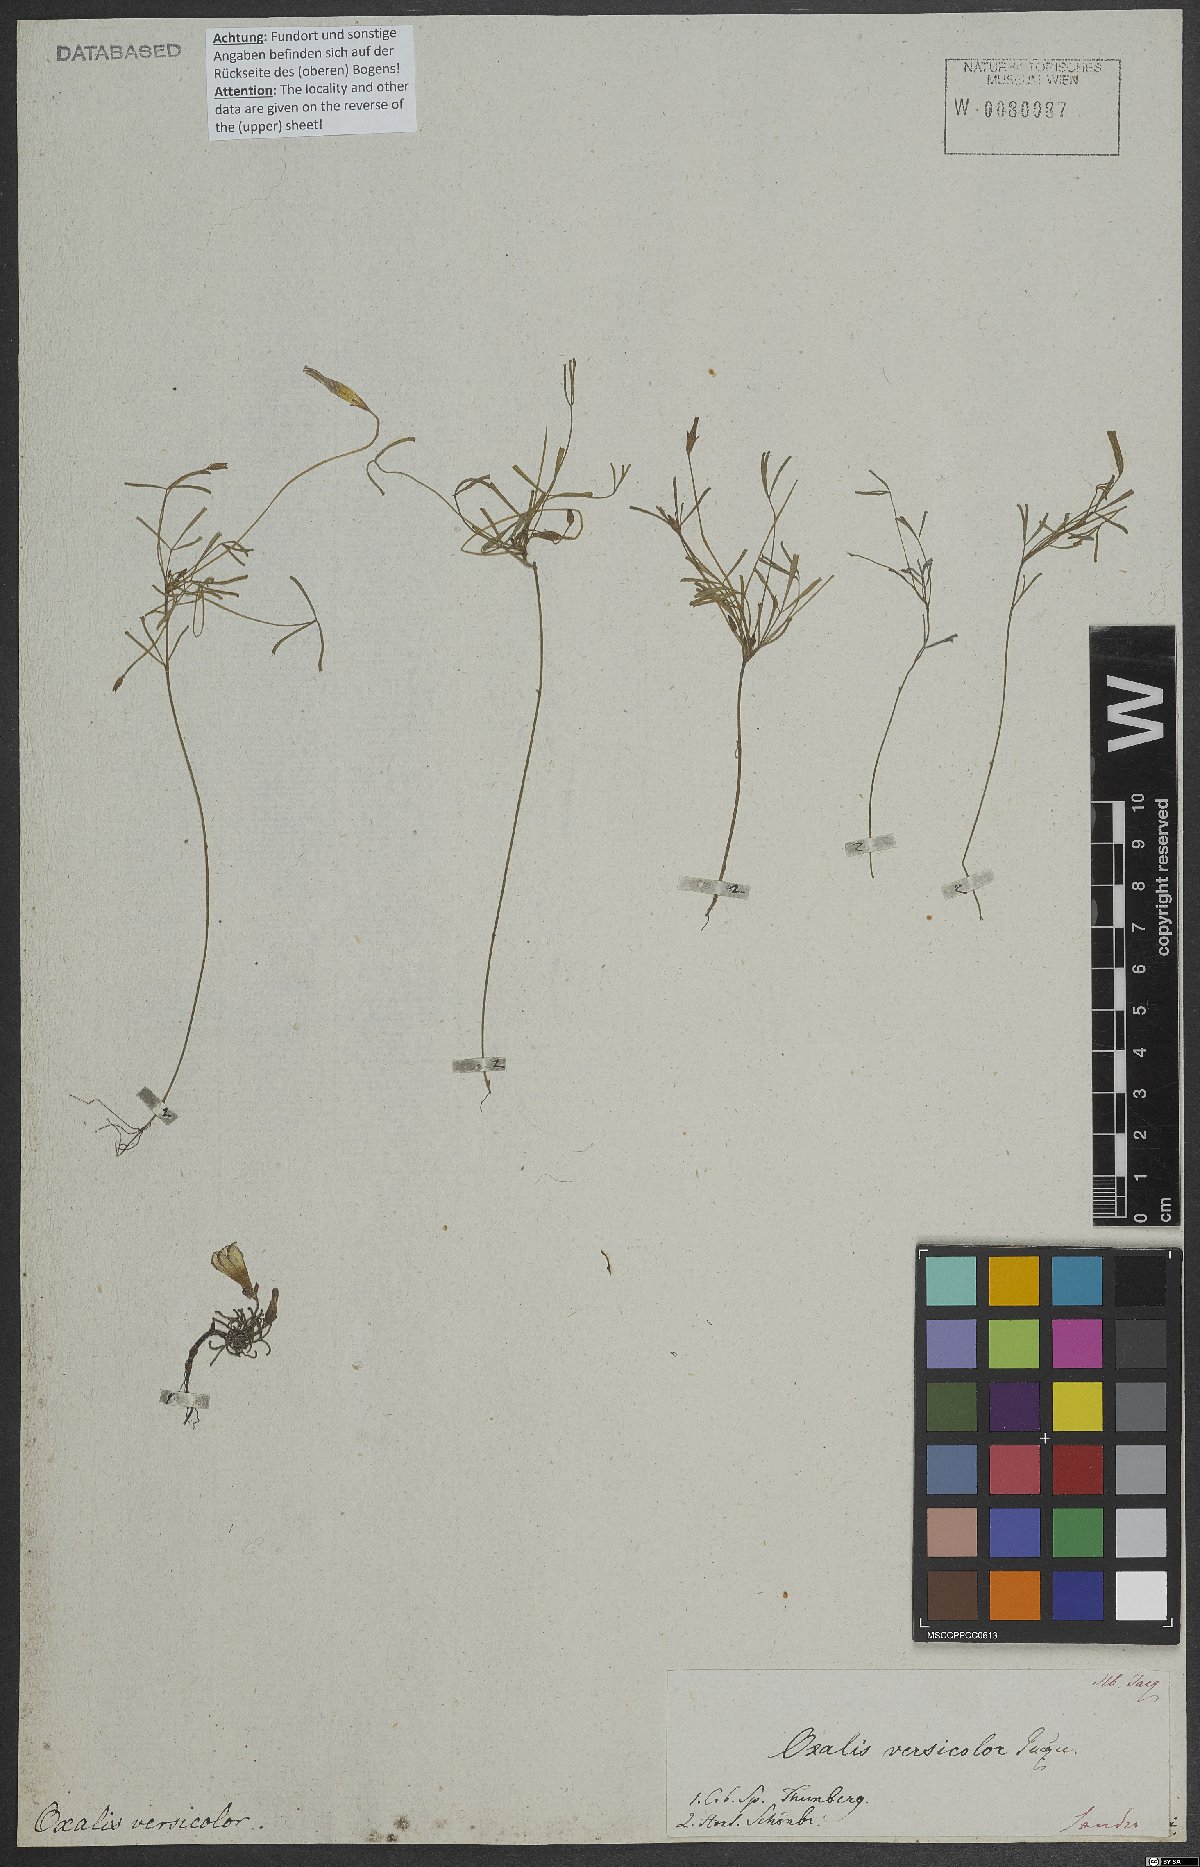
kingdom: Plantae
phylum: Tracheophyta
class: Magnoliopsida
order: Oxalidales
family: Oxalidaceae
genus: Oxalis
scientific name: Oxalis versicolor
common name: Peppermint rock oxalis
